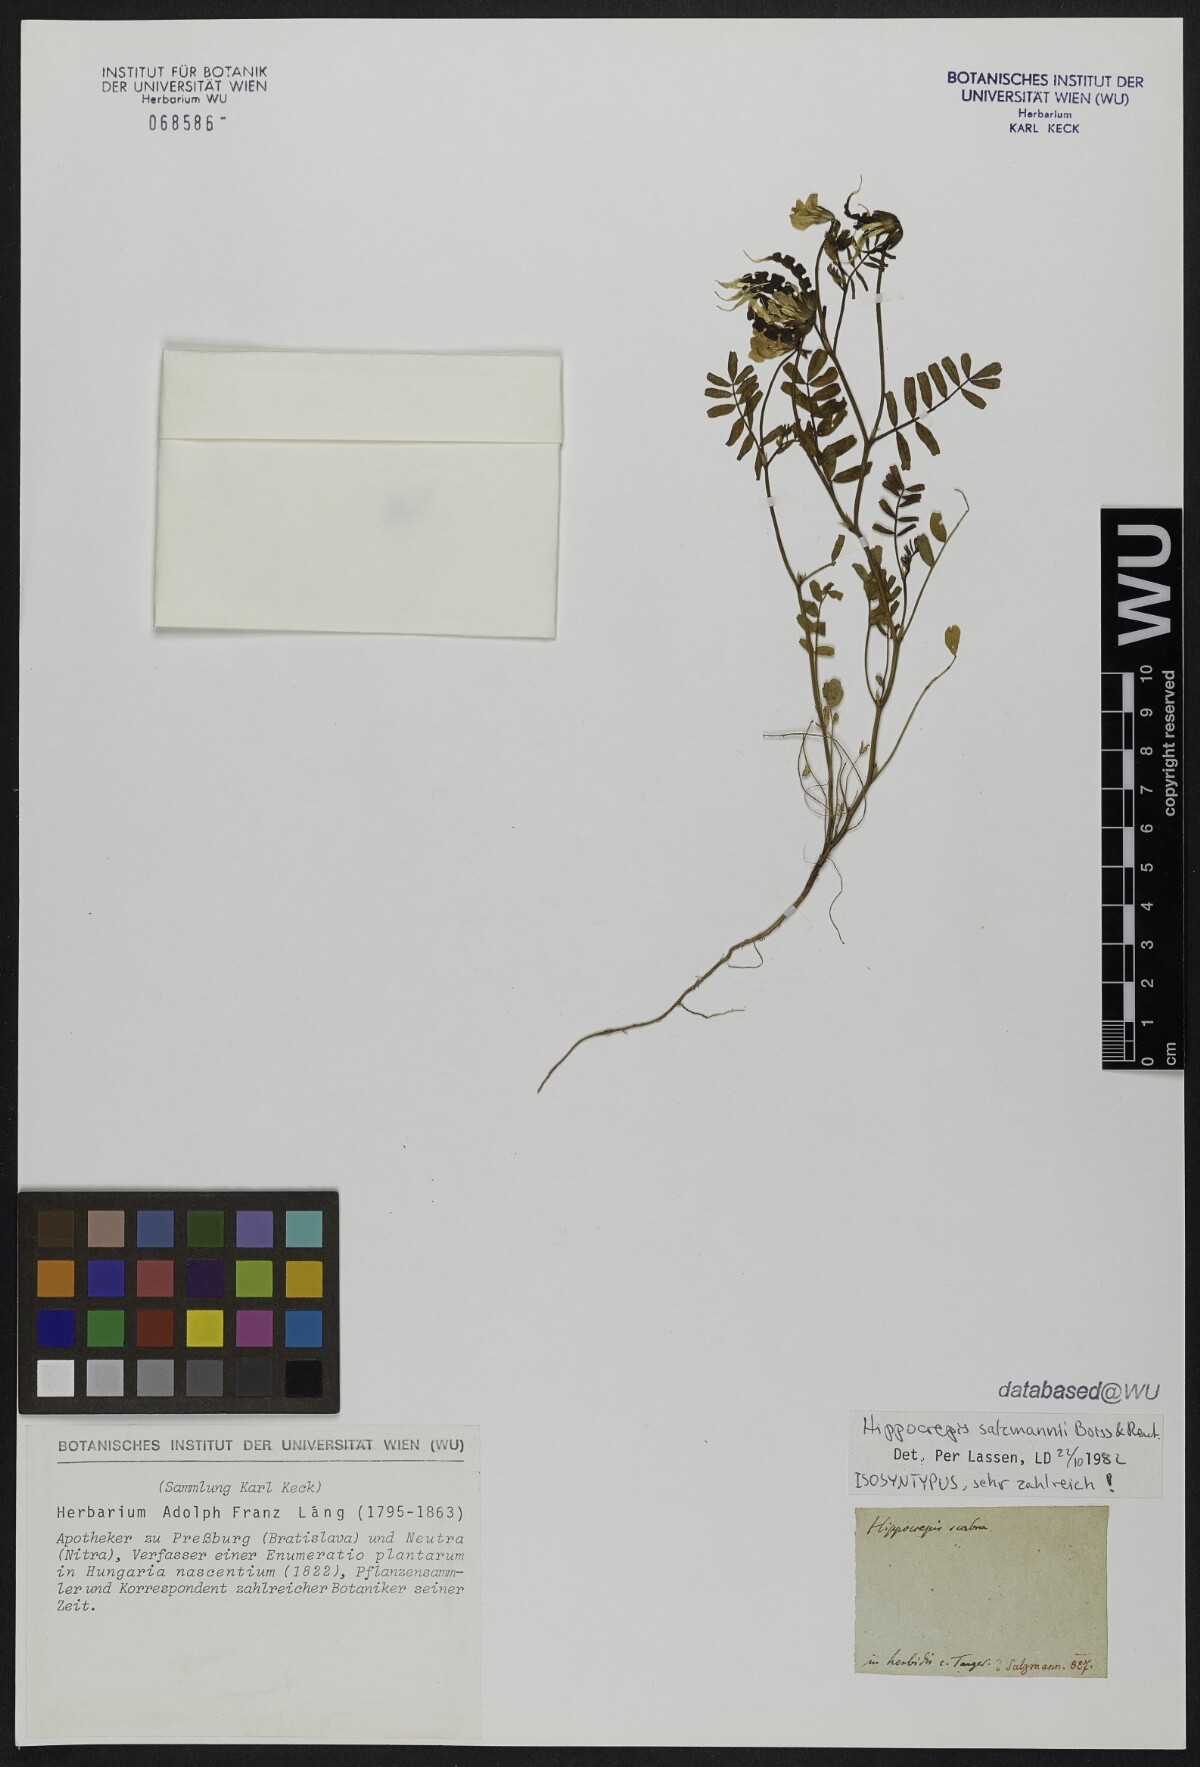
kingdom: Plantae
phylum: Tracheophyta
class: Magnoliopsida
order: Fabales
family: Fabaceae
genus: Hippocrepis
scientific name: Hippocrepis salzmannii
